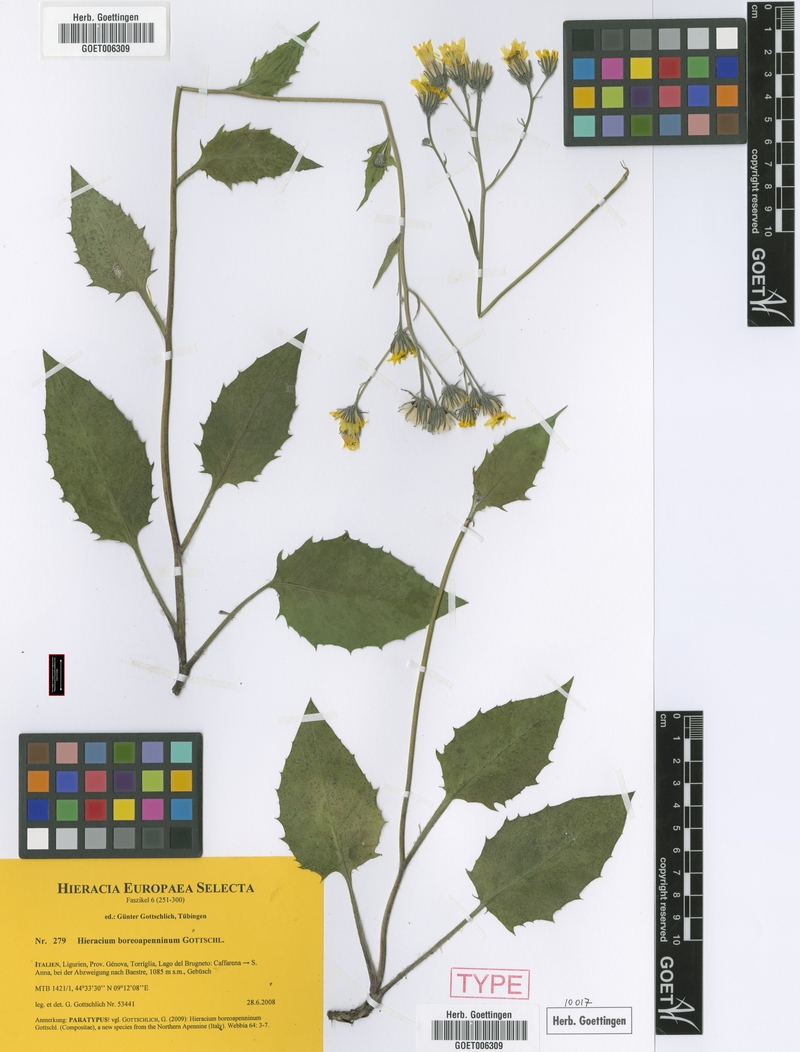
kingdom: Plantae
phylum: Tracheophyta
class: Magnoliopsida
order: Asterales
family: Asteraceae
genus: Hieracium
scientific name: Hieracium boreoapenninum
